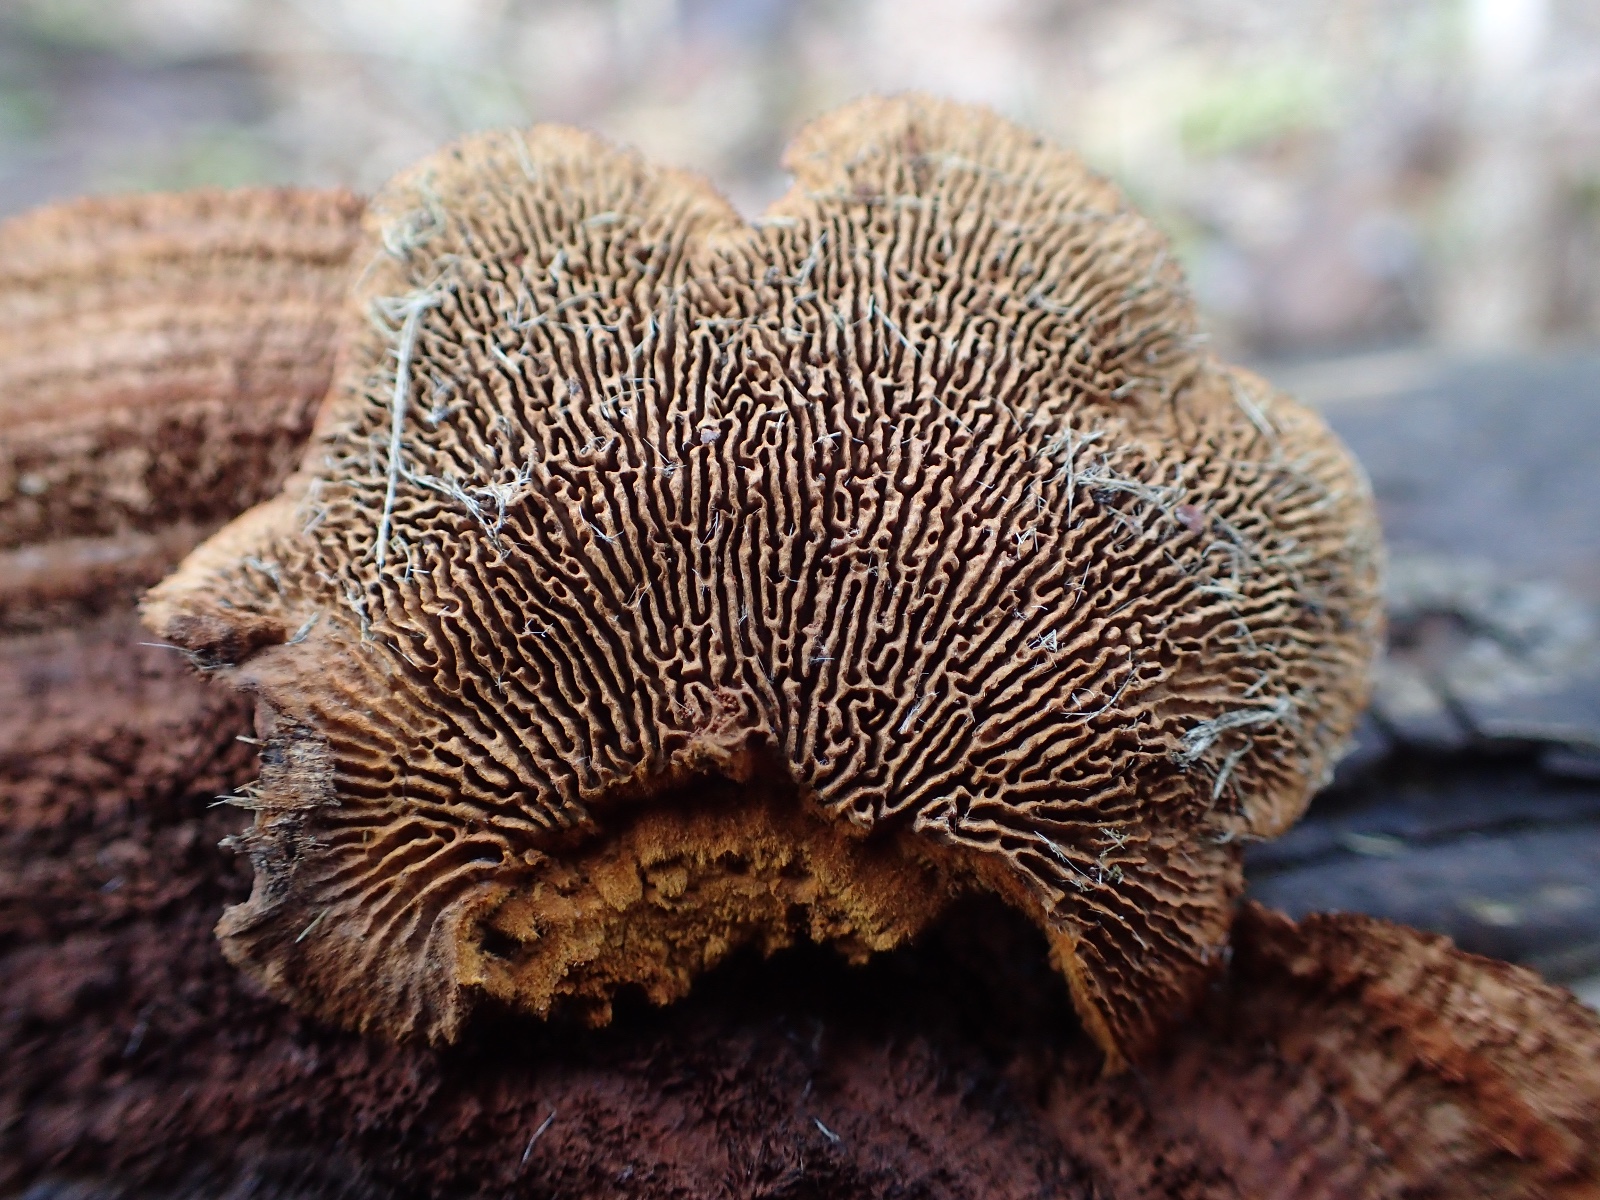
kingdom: Fungi
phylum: Basidiomycota
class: Agaricomycetes
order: Gloeophyllales
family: Gloeophyllaceae
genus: Gloeophyllum
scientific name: Gloeophyllum sepiarium
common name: fyrre-korkhat
